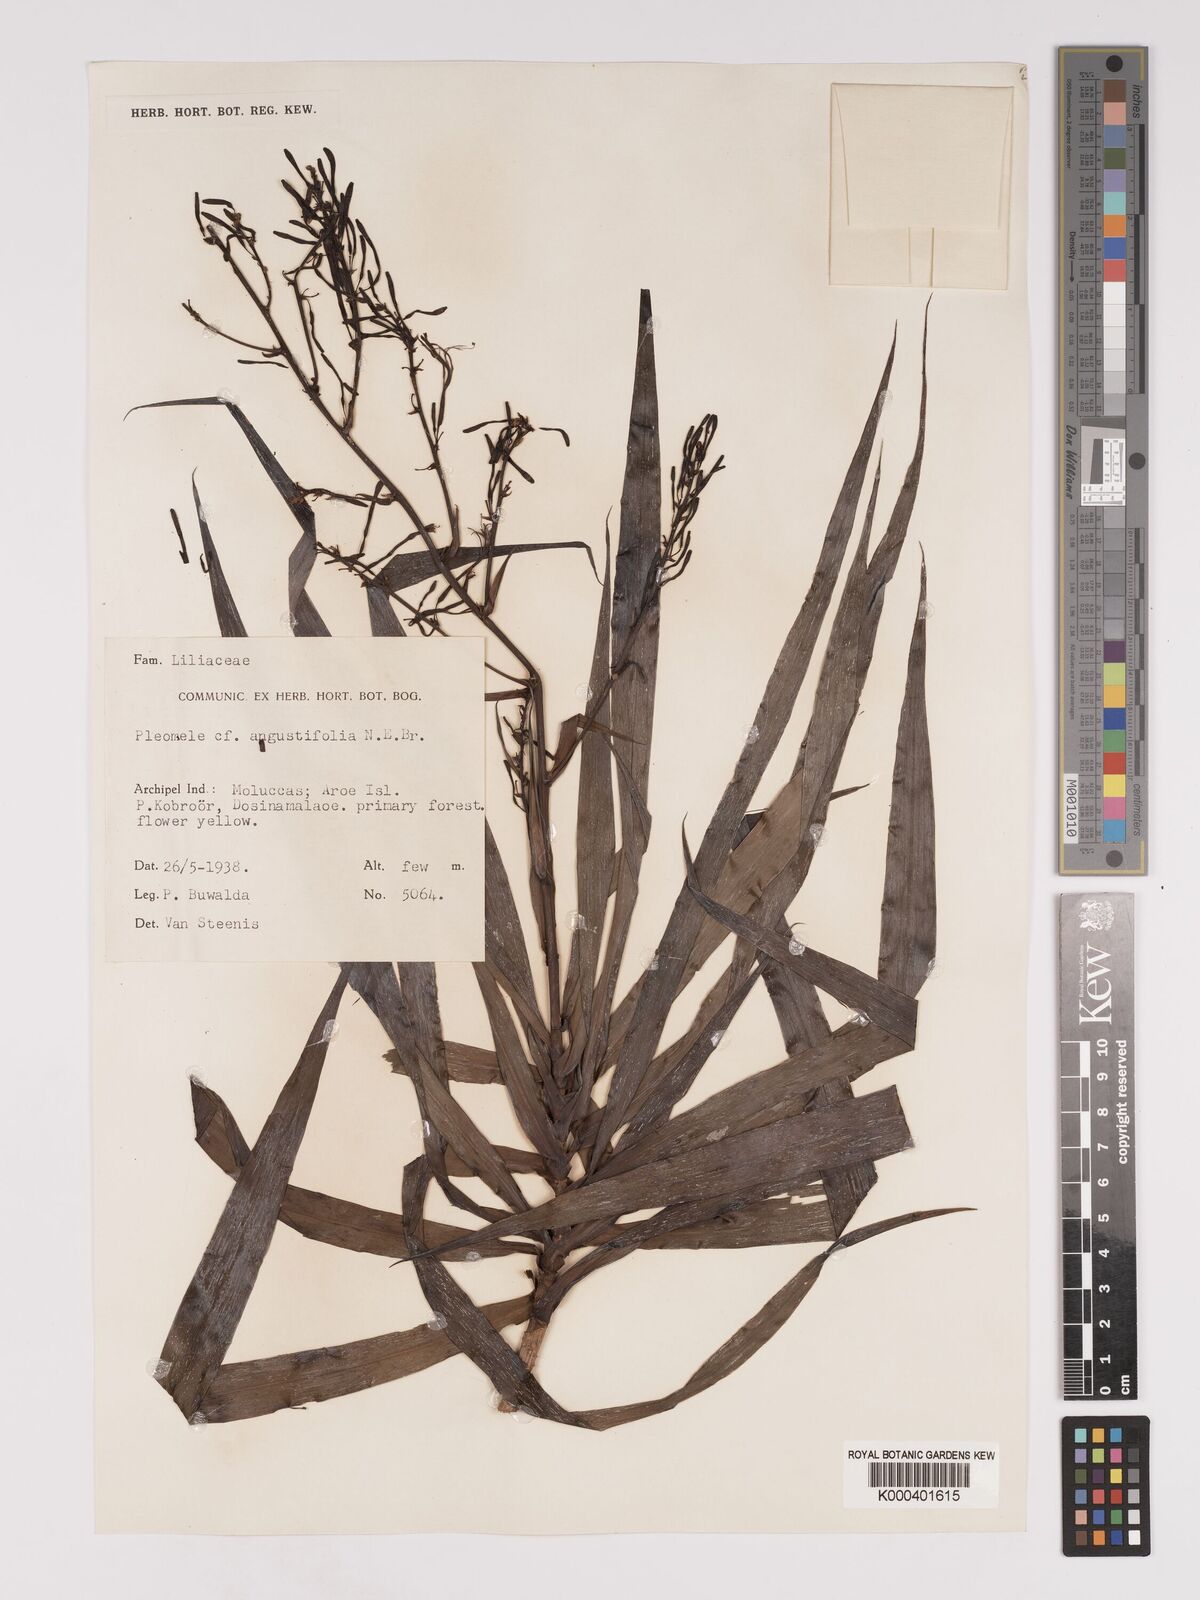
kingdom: Plantae
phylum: Tracheophyta
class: Liliopsida
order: Asparagales
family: Asparagaceae
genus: Dracaena
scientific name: Dracaena angustifolia
